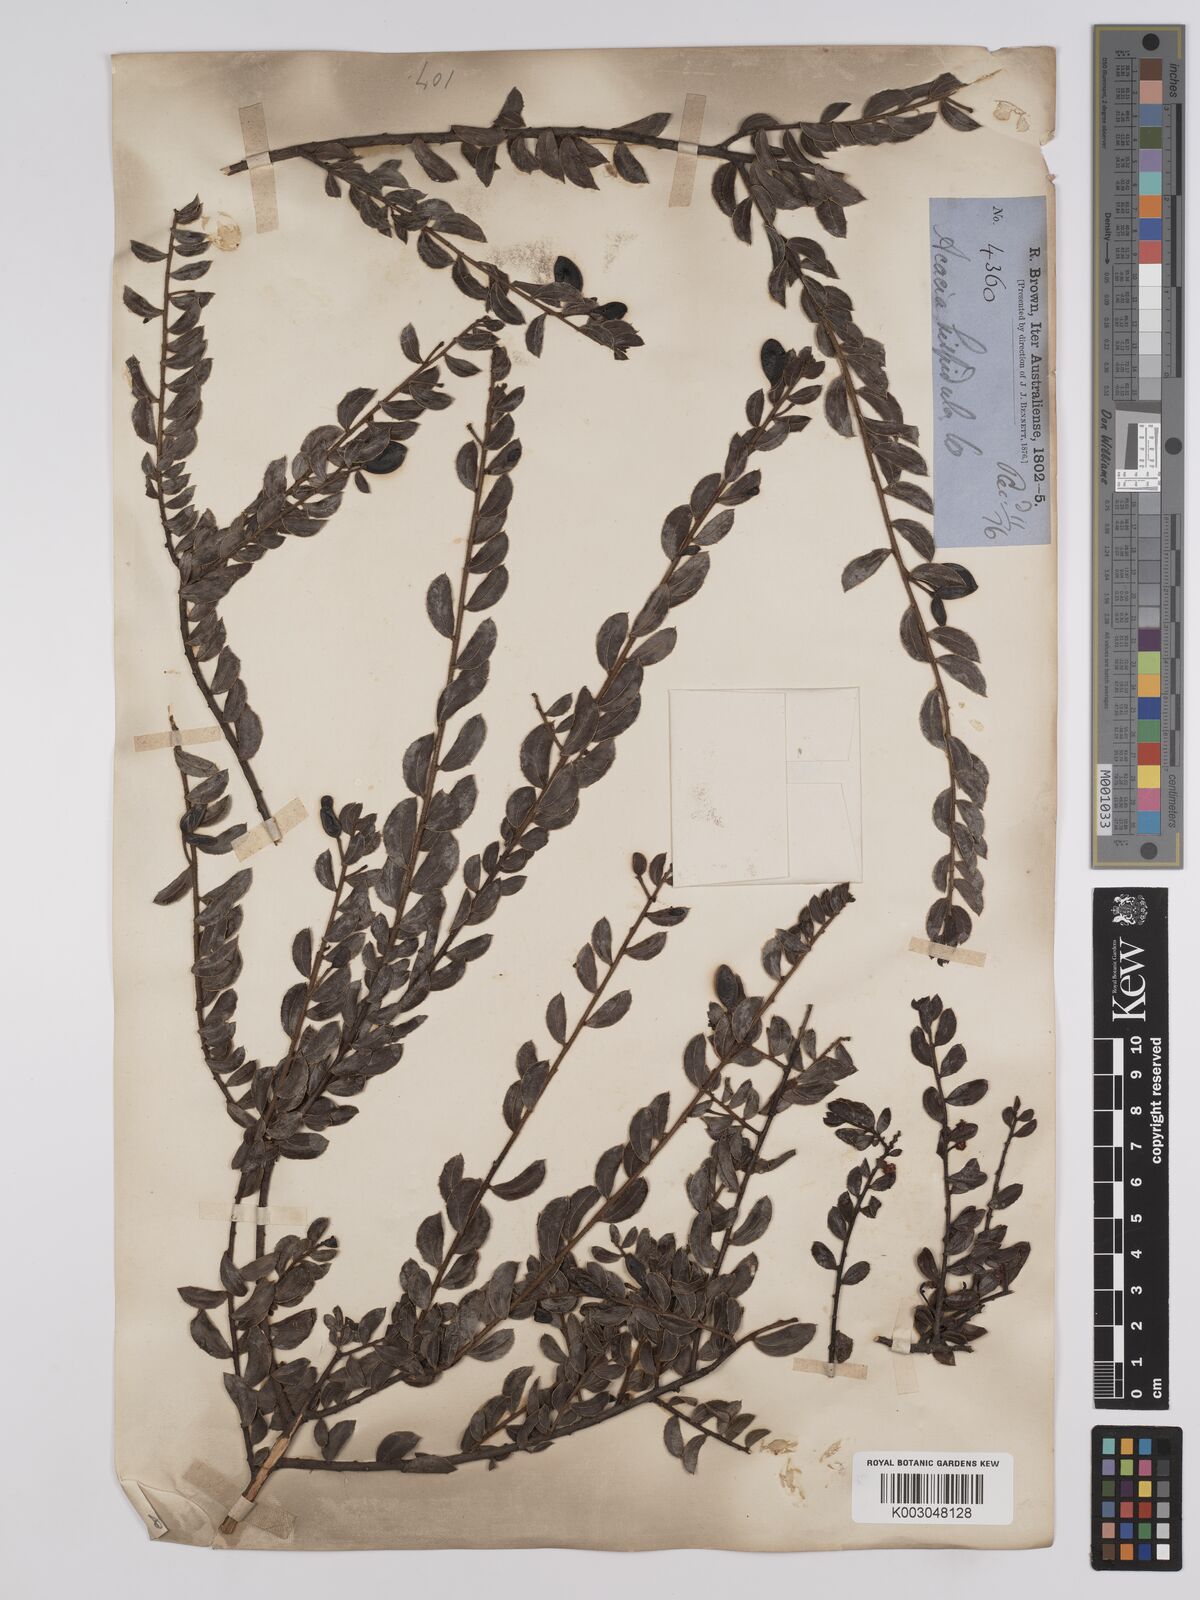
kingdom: Plantae
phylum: Tracheophyta
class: Magnoliopsida
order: Fabales
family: Fabaceae
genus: Acacia
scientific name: Acacia hispidula
